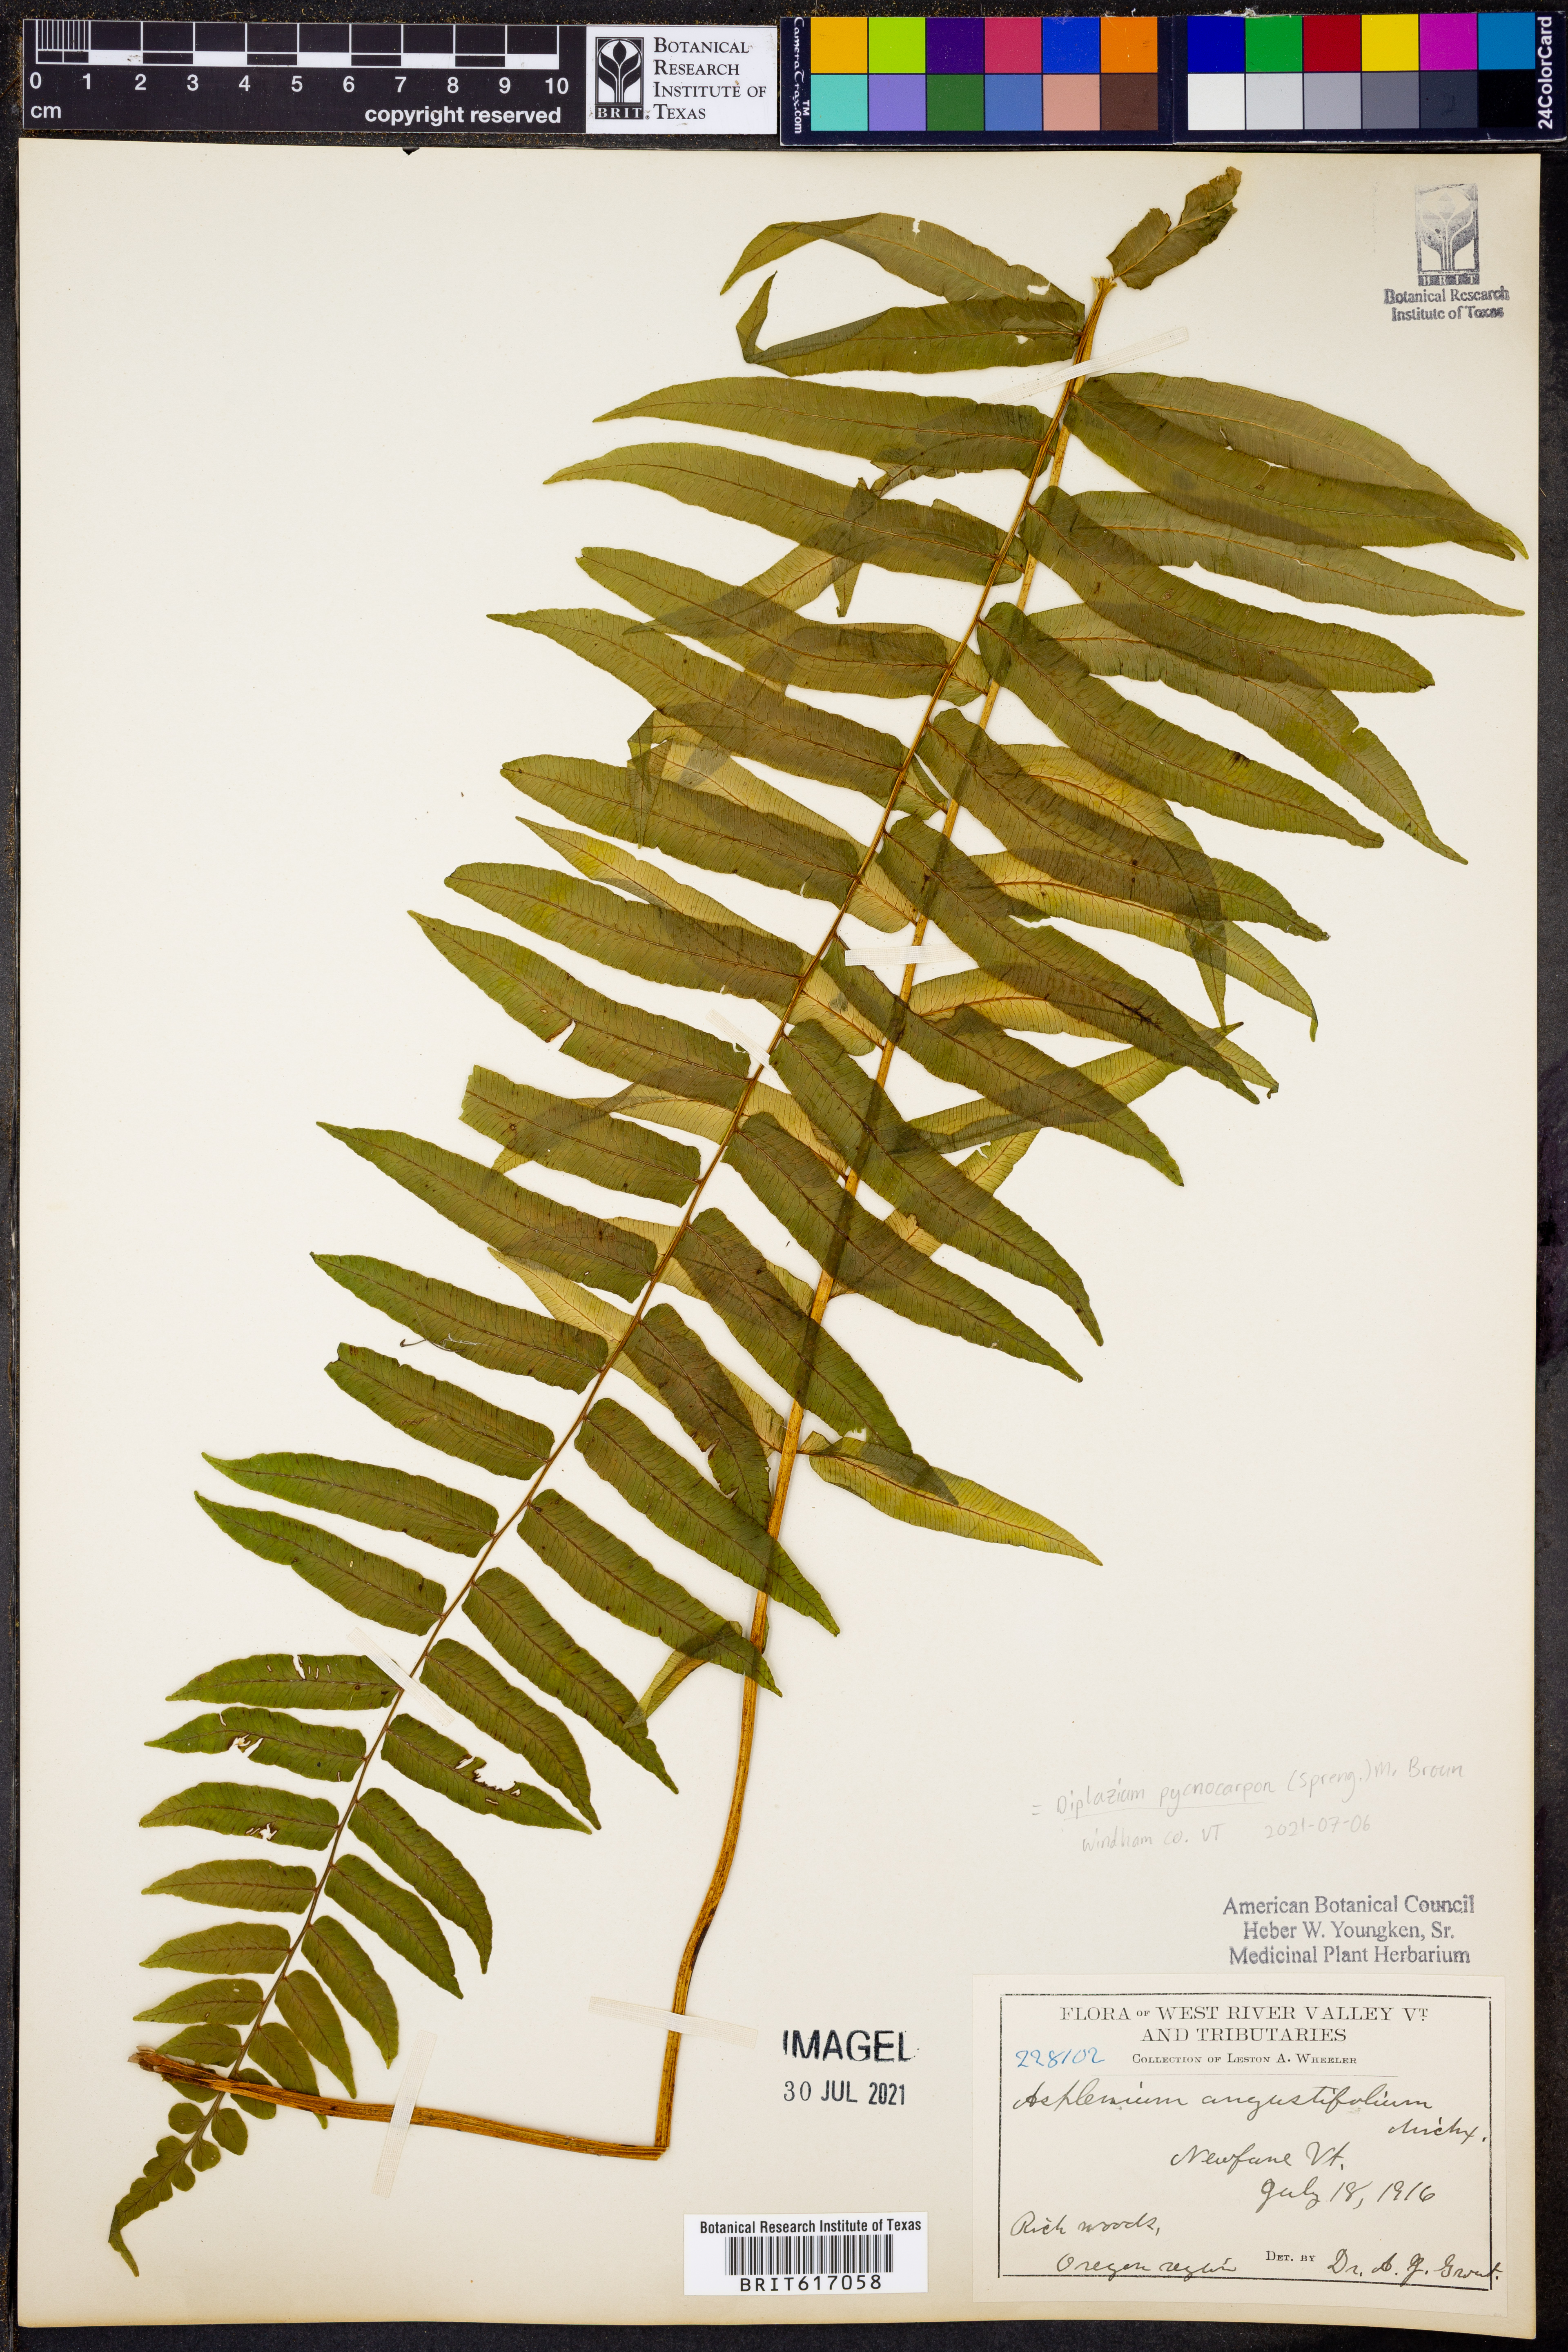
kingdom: Plantae
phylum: Tracheophyta
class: Polypodiopsida
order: Polypodiales
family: Diplaziopsidaceae
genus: Homalosorus
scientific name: Homalosorus pycnocarpos
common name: Glade fern
